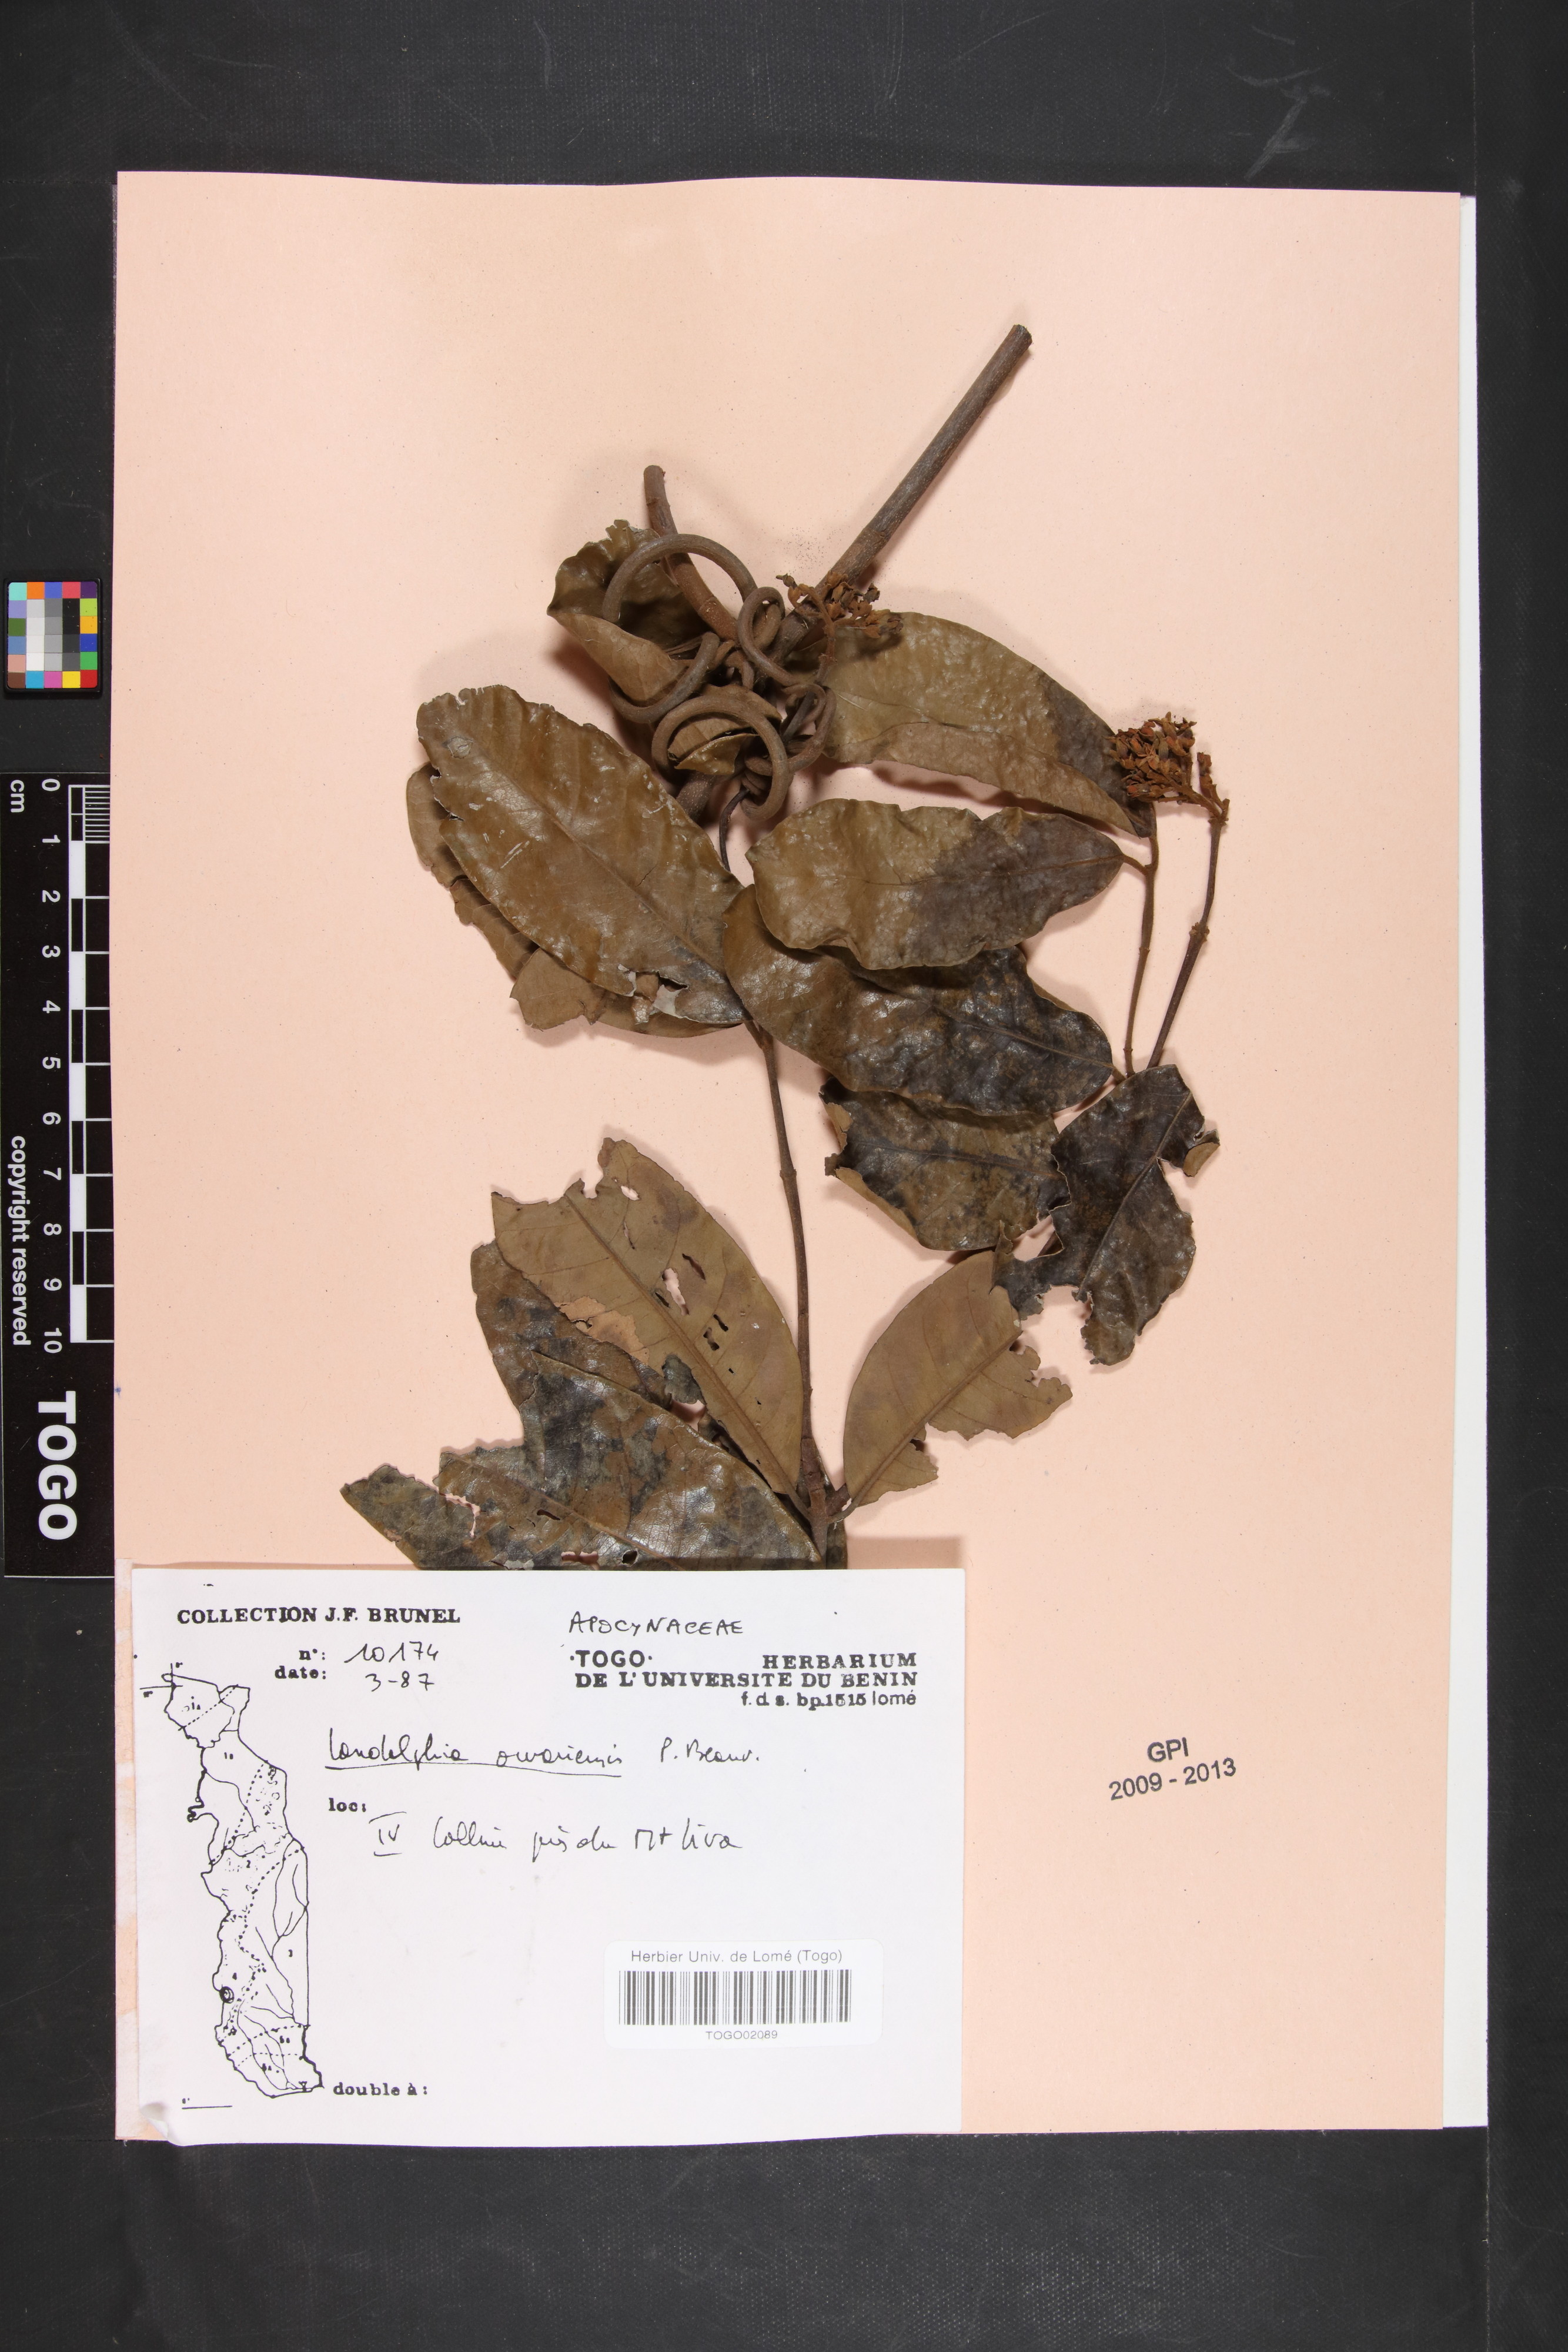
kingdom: Plantae
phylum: Tracheophyta
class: Magnoliopsida
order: Gentianales
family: Apocynaceae
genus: Landolphia
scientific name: Landolphia owariensis
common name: White-ball-rubber
